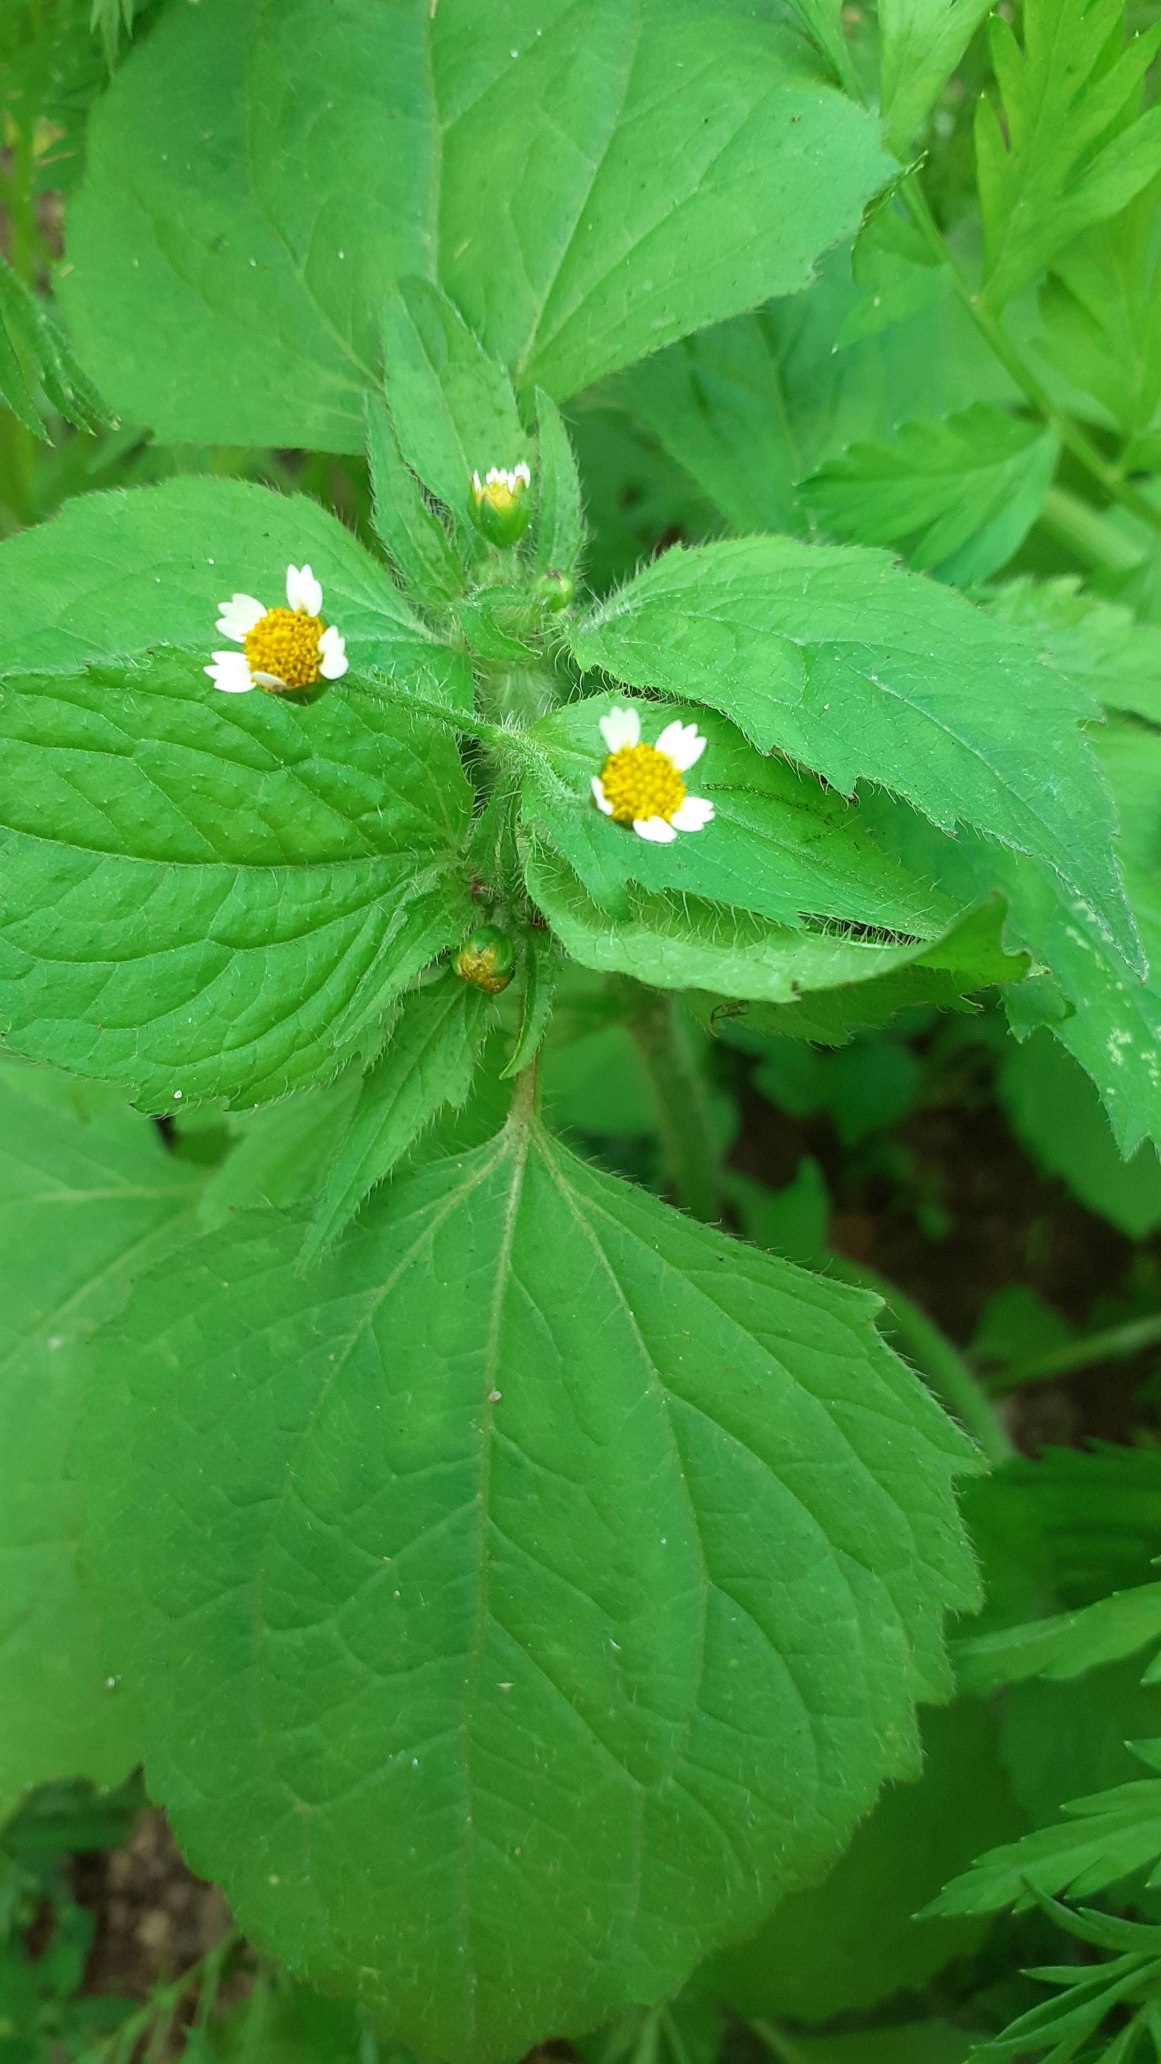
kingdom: Plantae
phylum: Tracheophyta
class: Magnoliopsida
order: Asterales
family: Asteraceae
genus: Galinsoga
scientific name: Galinsoga quadriradiata
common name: Kirtel-kortstråle
